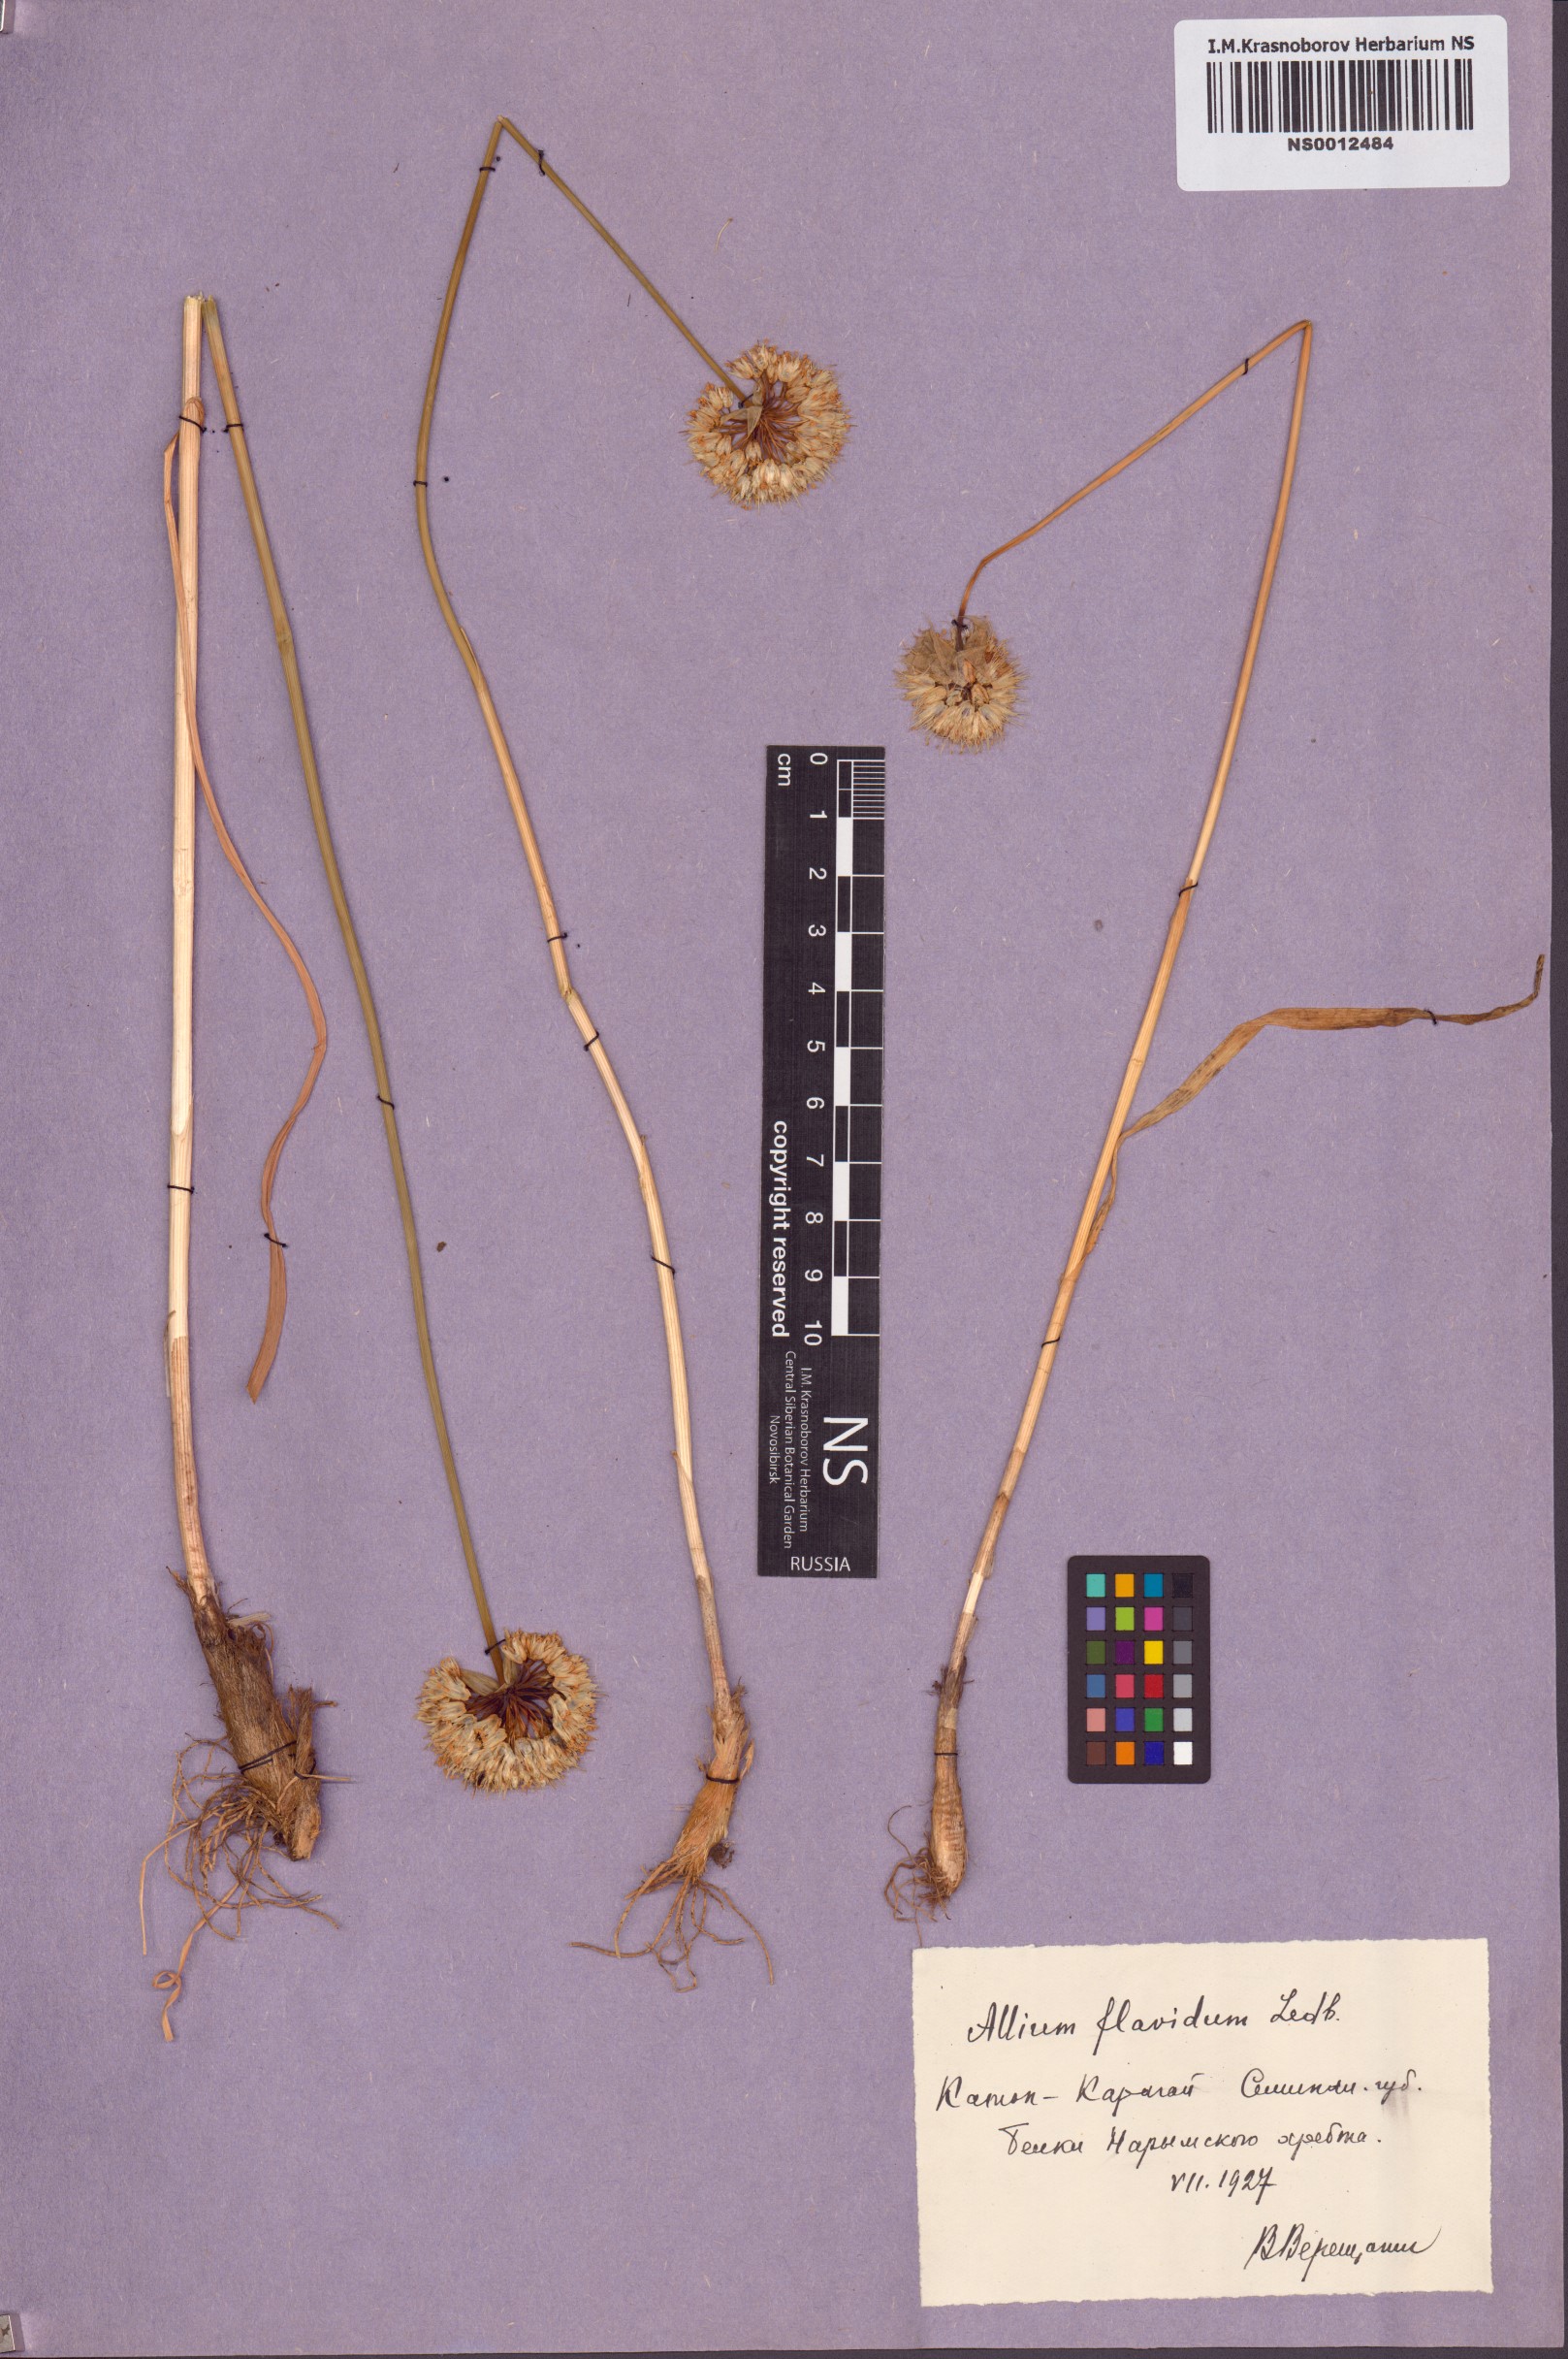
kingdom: Plantae
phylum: Tracheophyta
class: Liliopsida
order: Asparagales
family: Amaryllidaceae
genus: Allium
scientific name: Allium flavidum
